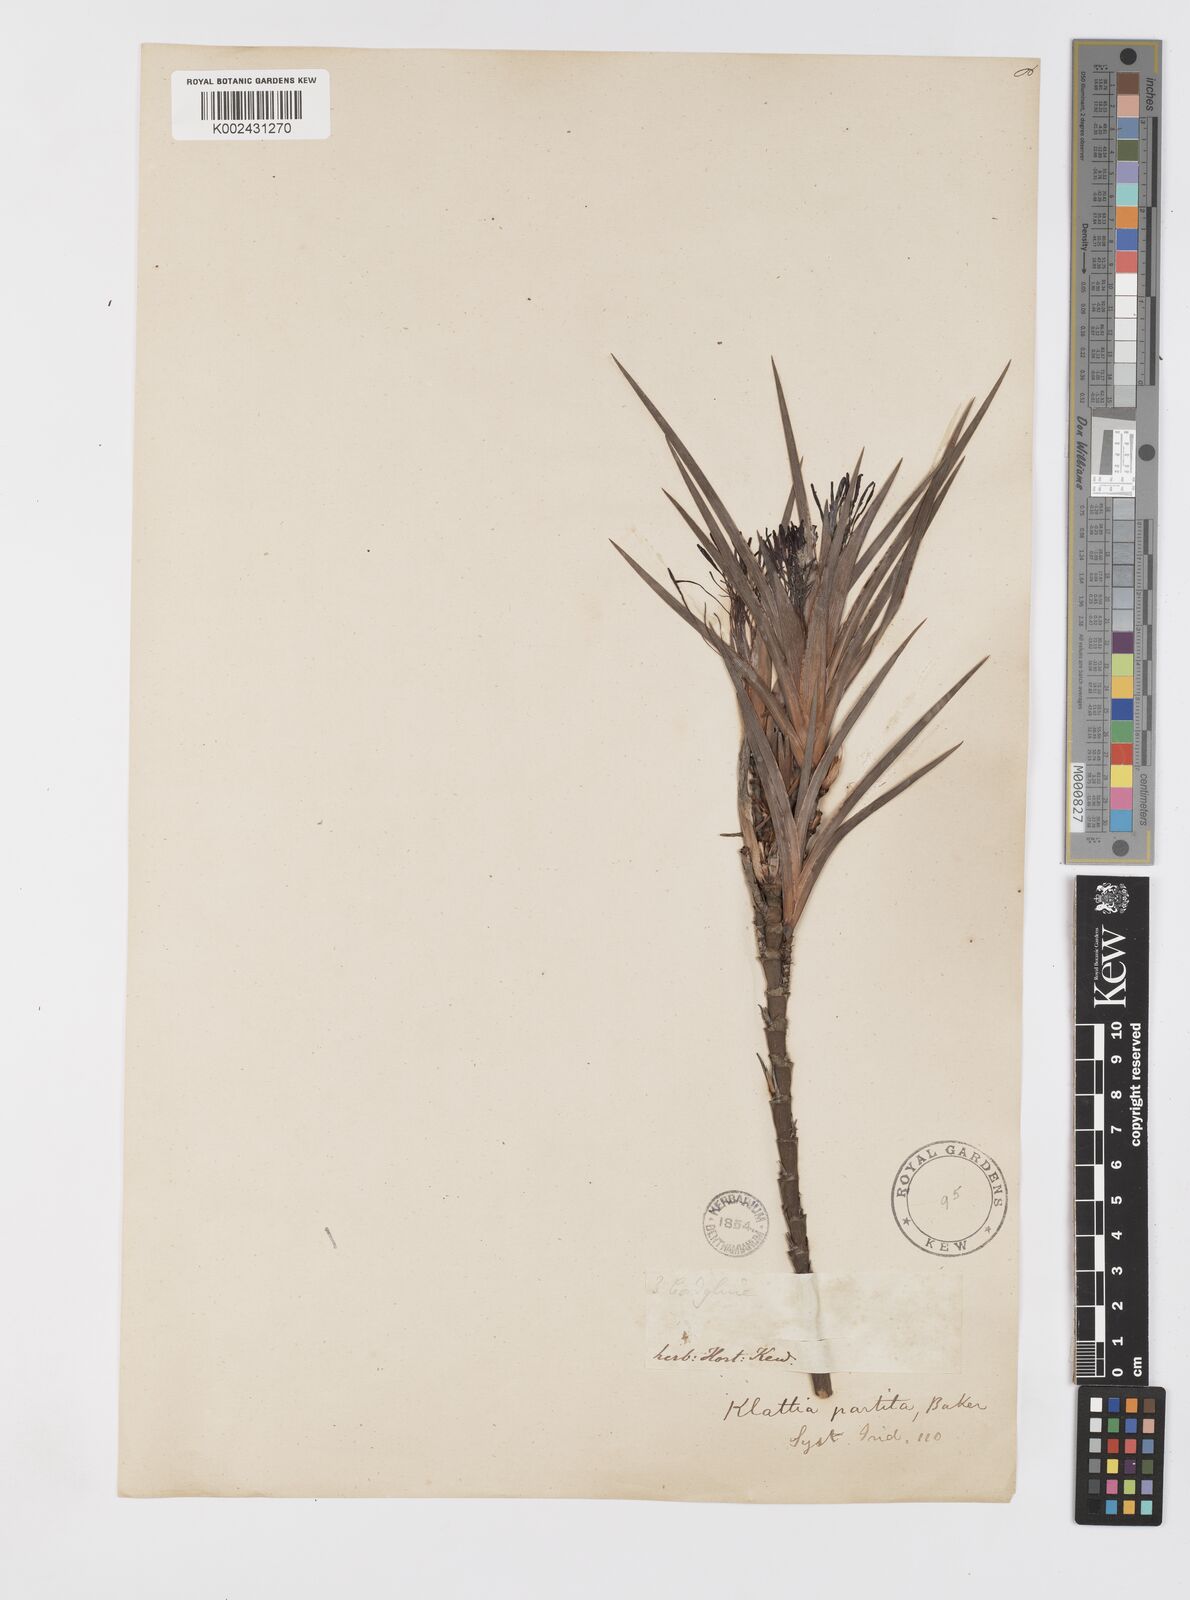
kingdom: Plantae
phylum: Tracheophyta
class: Liliopsida
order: Asparagales
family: Iridaceae
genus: Klattia
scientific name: Klattia partita
